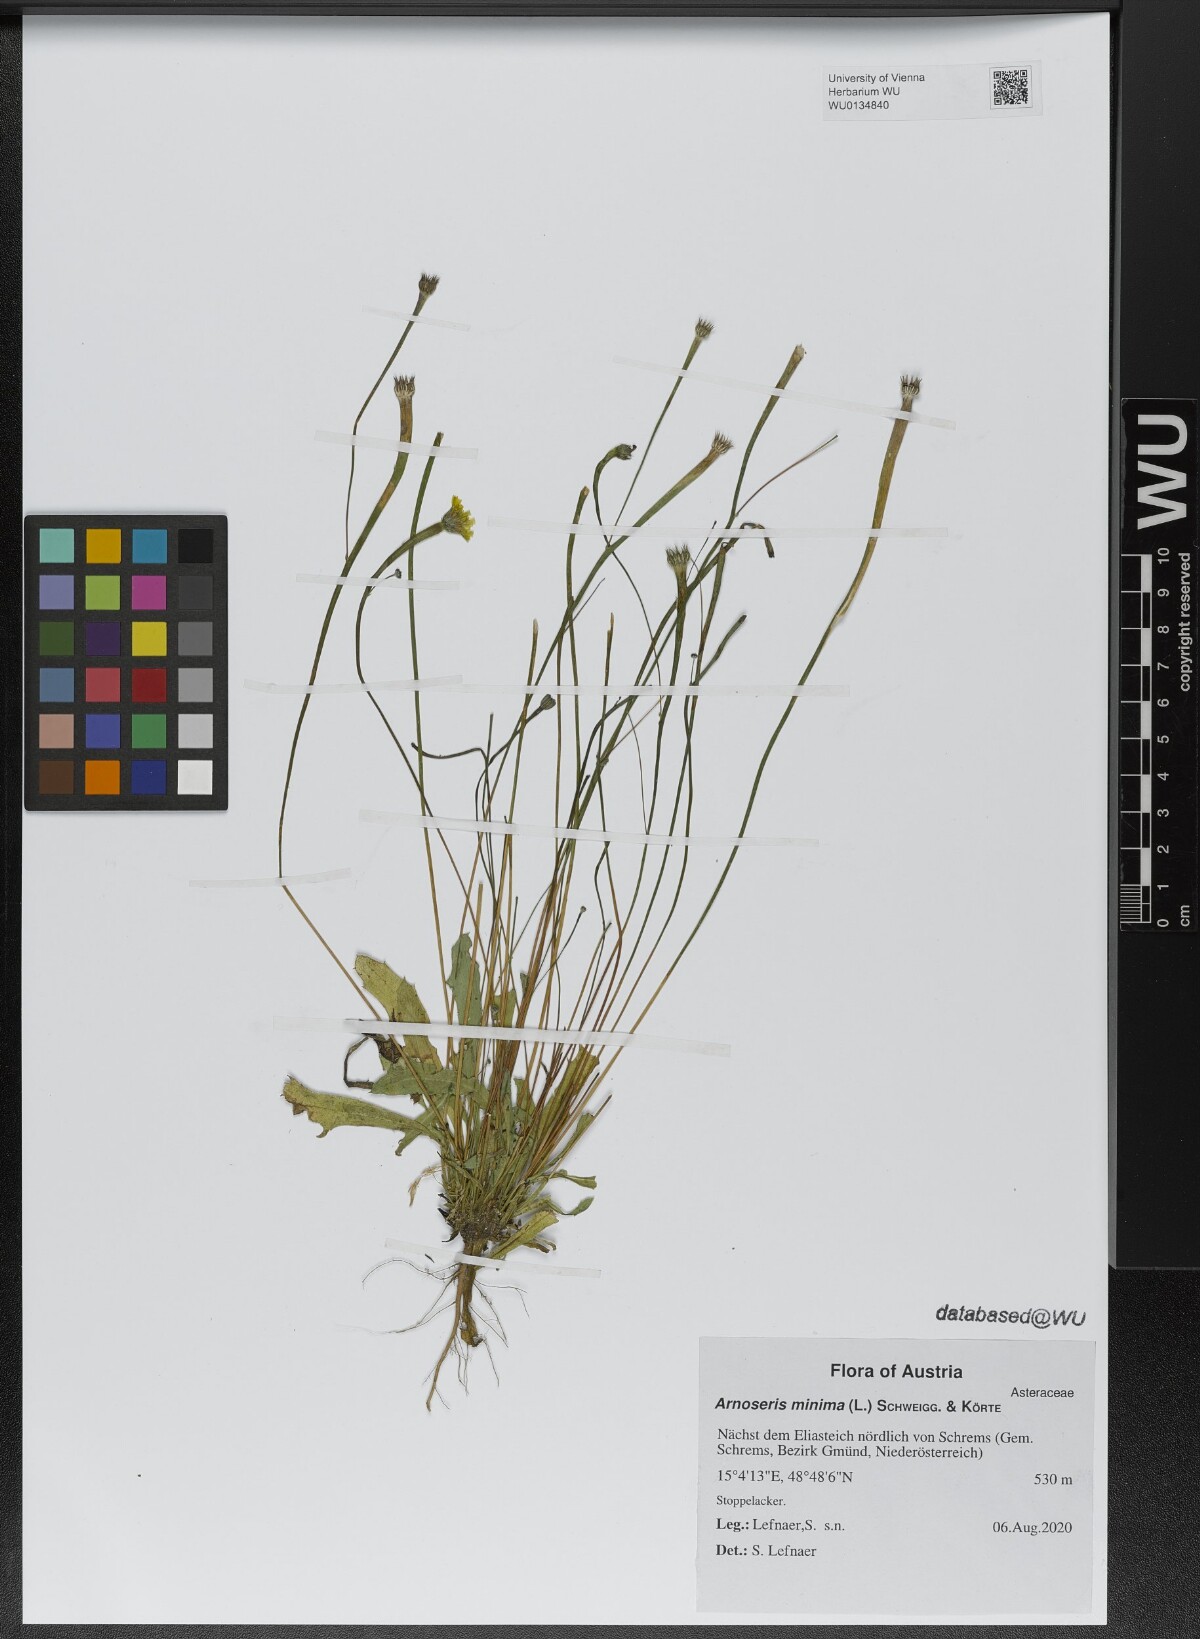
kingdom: Plantae
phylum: Tracheophyta
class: Magnoliopsida
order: Asterales
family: Asteraceae
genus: Arnoseris
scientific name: Arnoseris minima
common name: Lamb's succory
